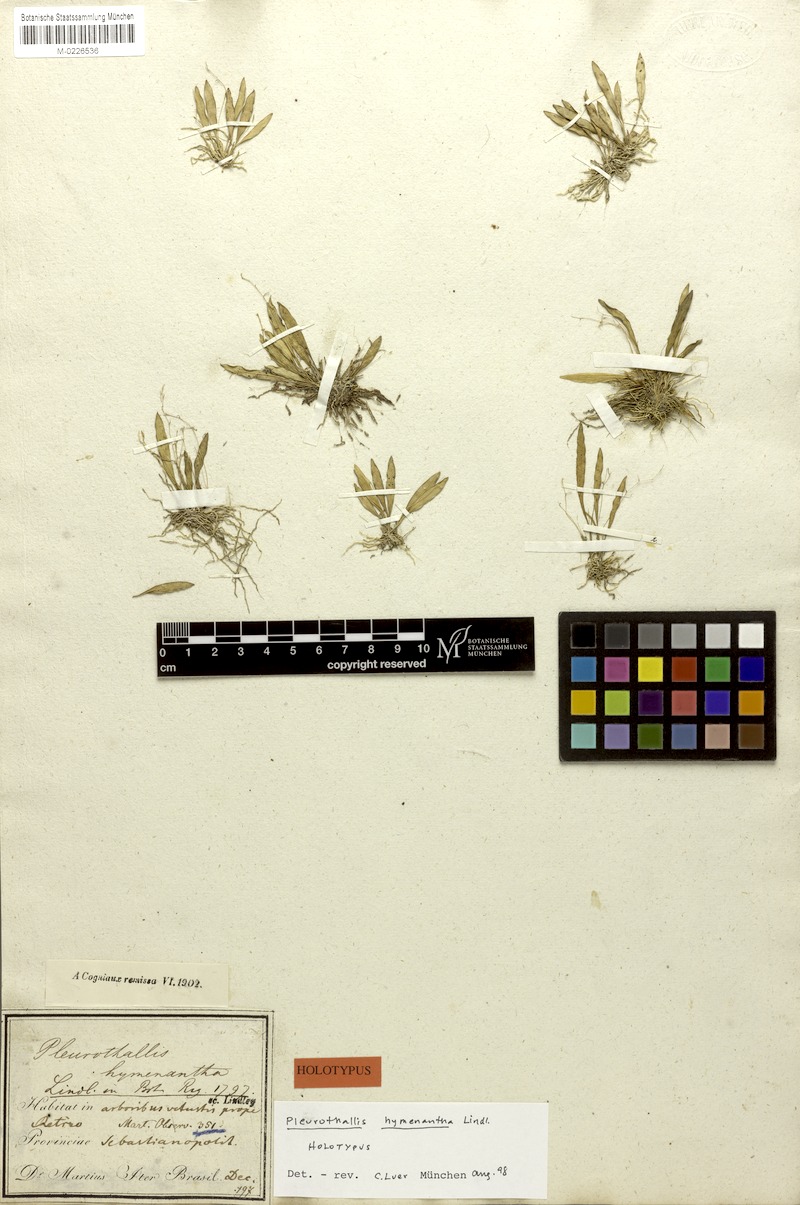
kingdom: Plantae
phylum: Tracheophyta
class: Liliopsida
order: Asparagales
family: Orchidaceae
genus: Specklinia
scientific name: Specklinia hymenantha
